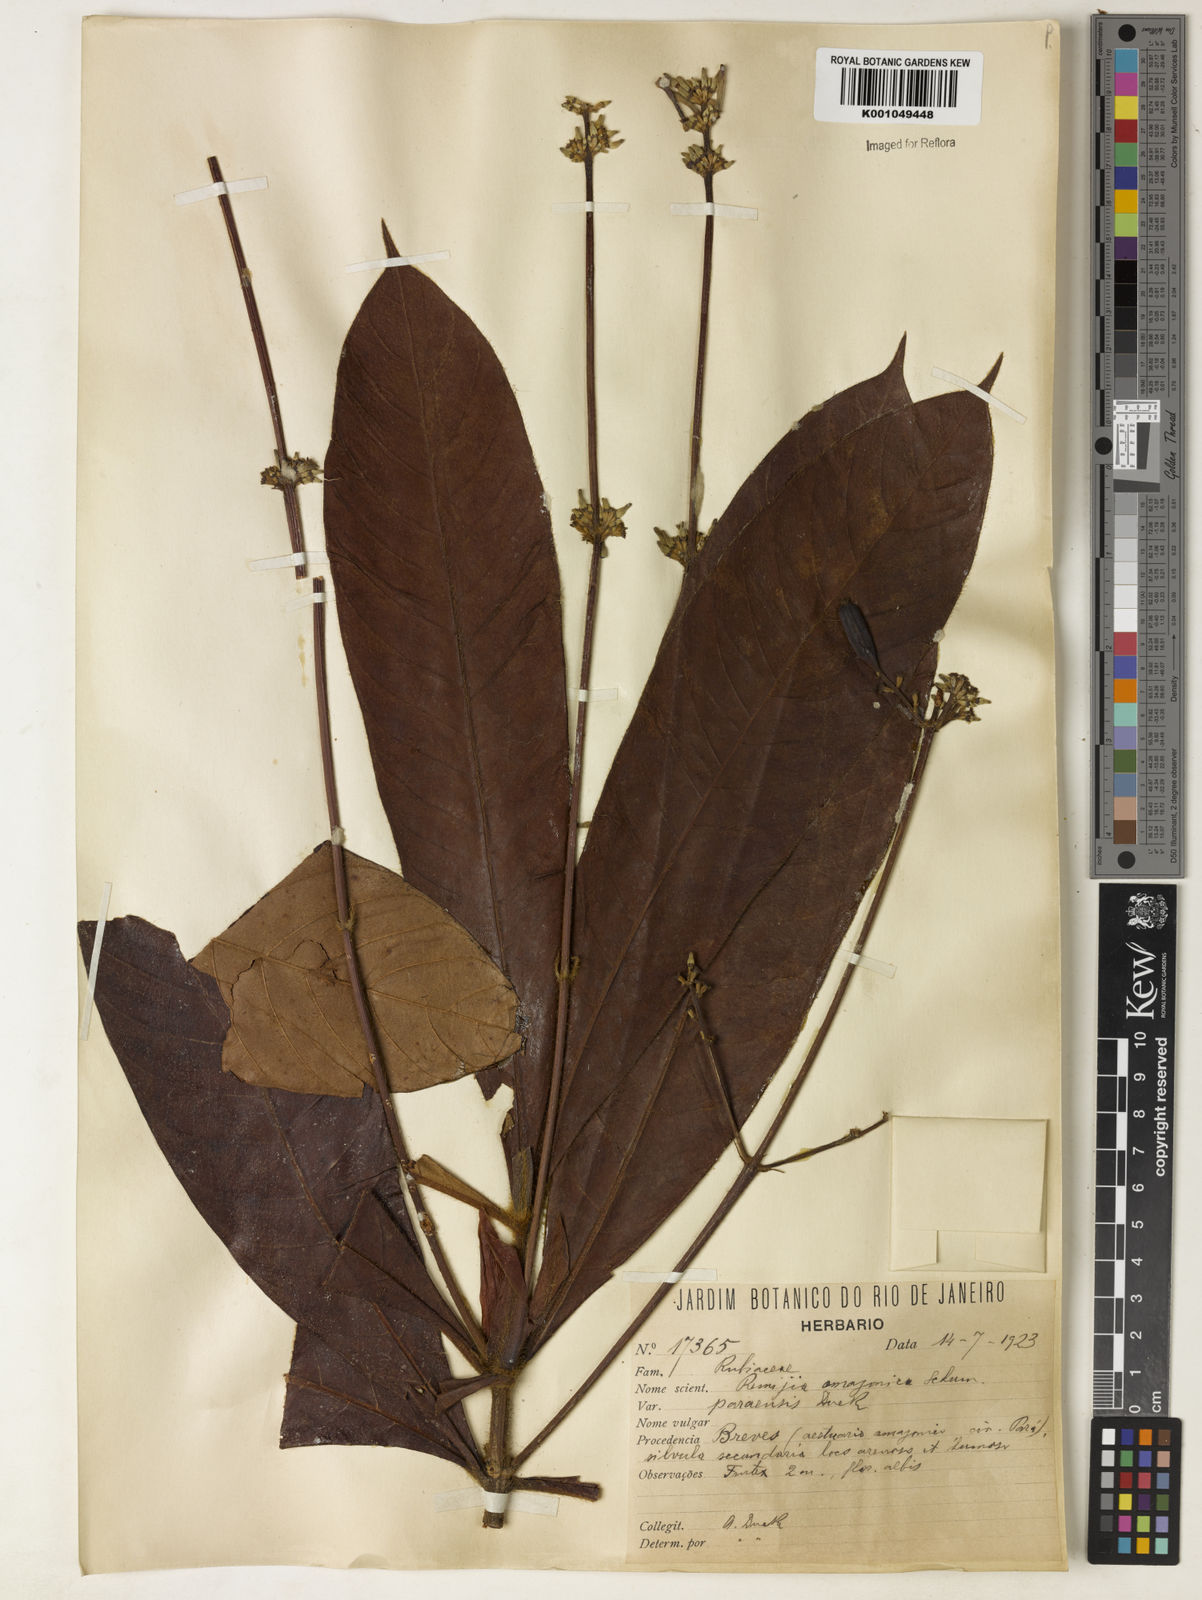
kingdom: Plantae
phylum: Tracheophyta
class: Magnoliopsida
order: Gentianales
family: Rubiaceae
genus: Remijia
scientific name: Remijia amazonica
